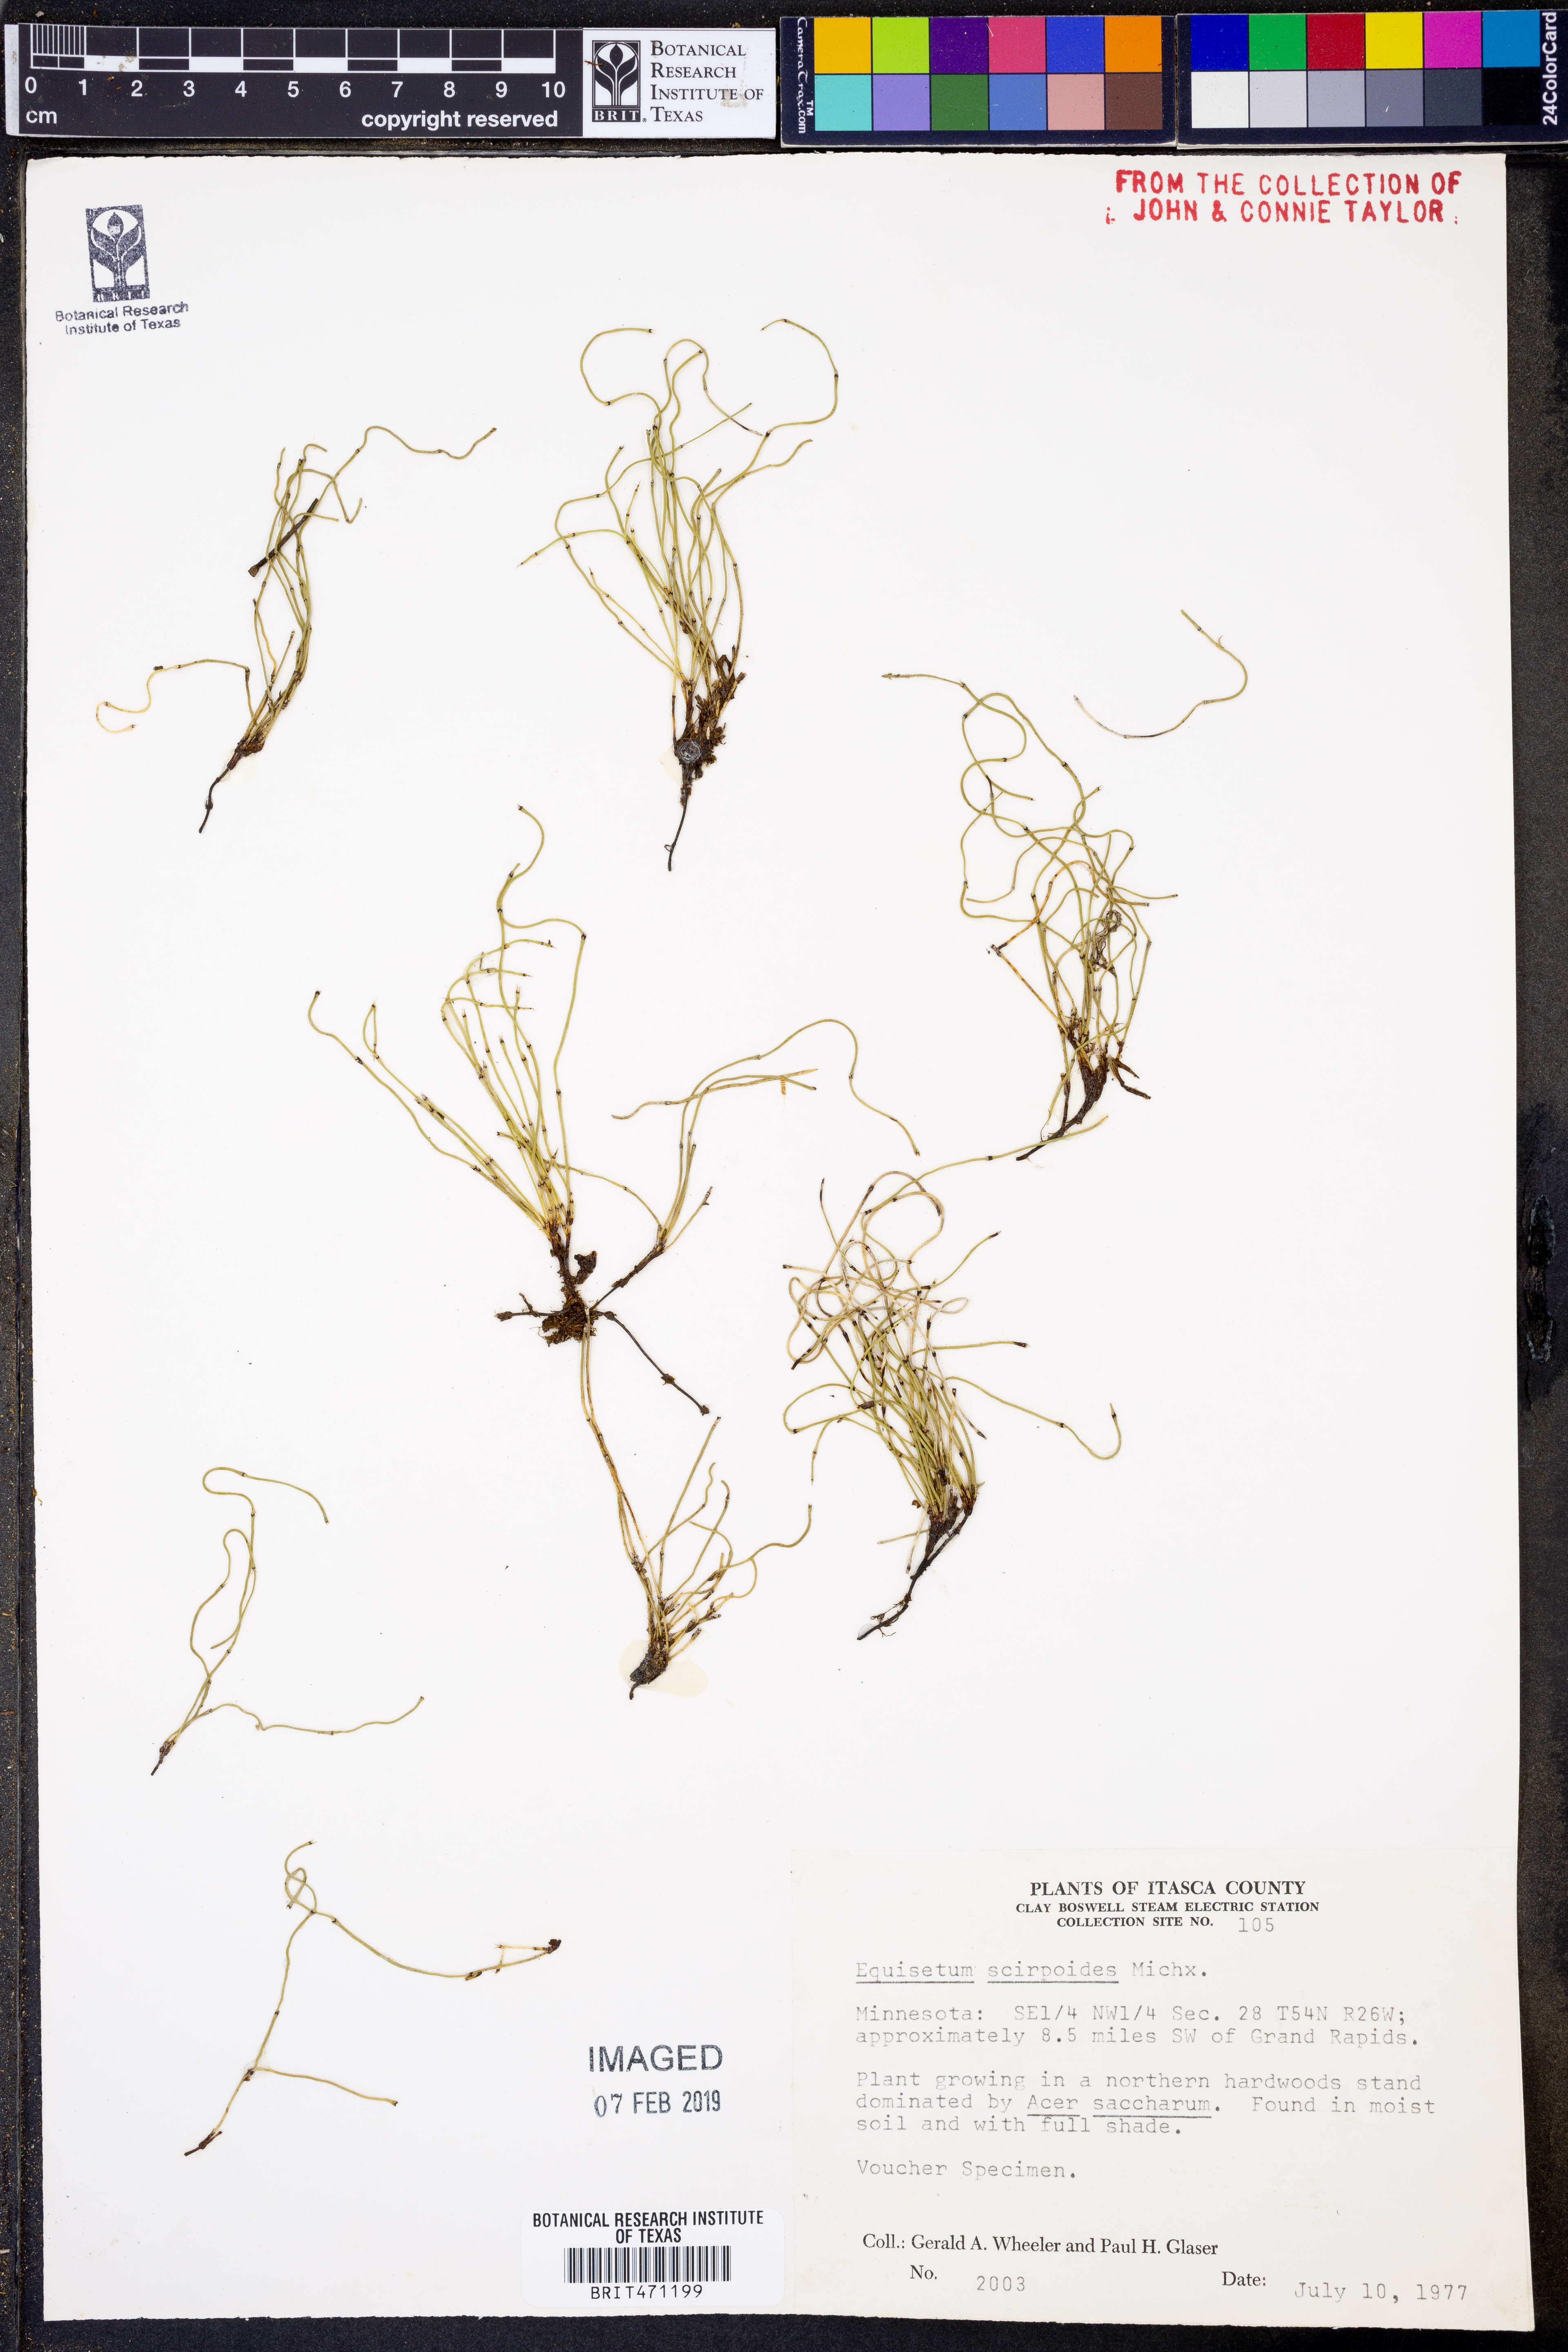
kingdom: Plantae
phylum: Tracheophyta
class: Polypodiopsida
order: Equisetales
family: Equisetaceae
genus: Equisetum
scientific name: Equisetum scirpoides
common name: Delicate horsetail
